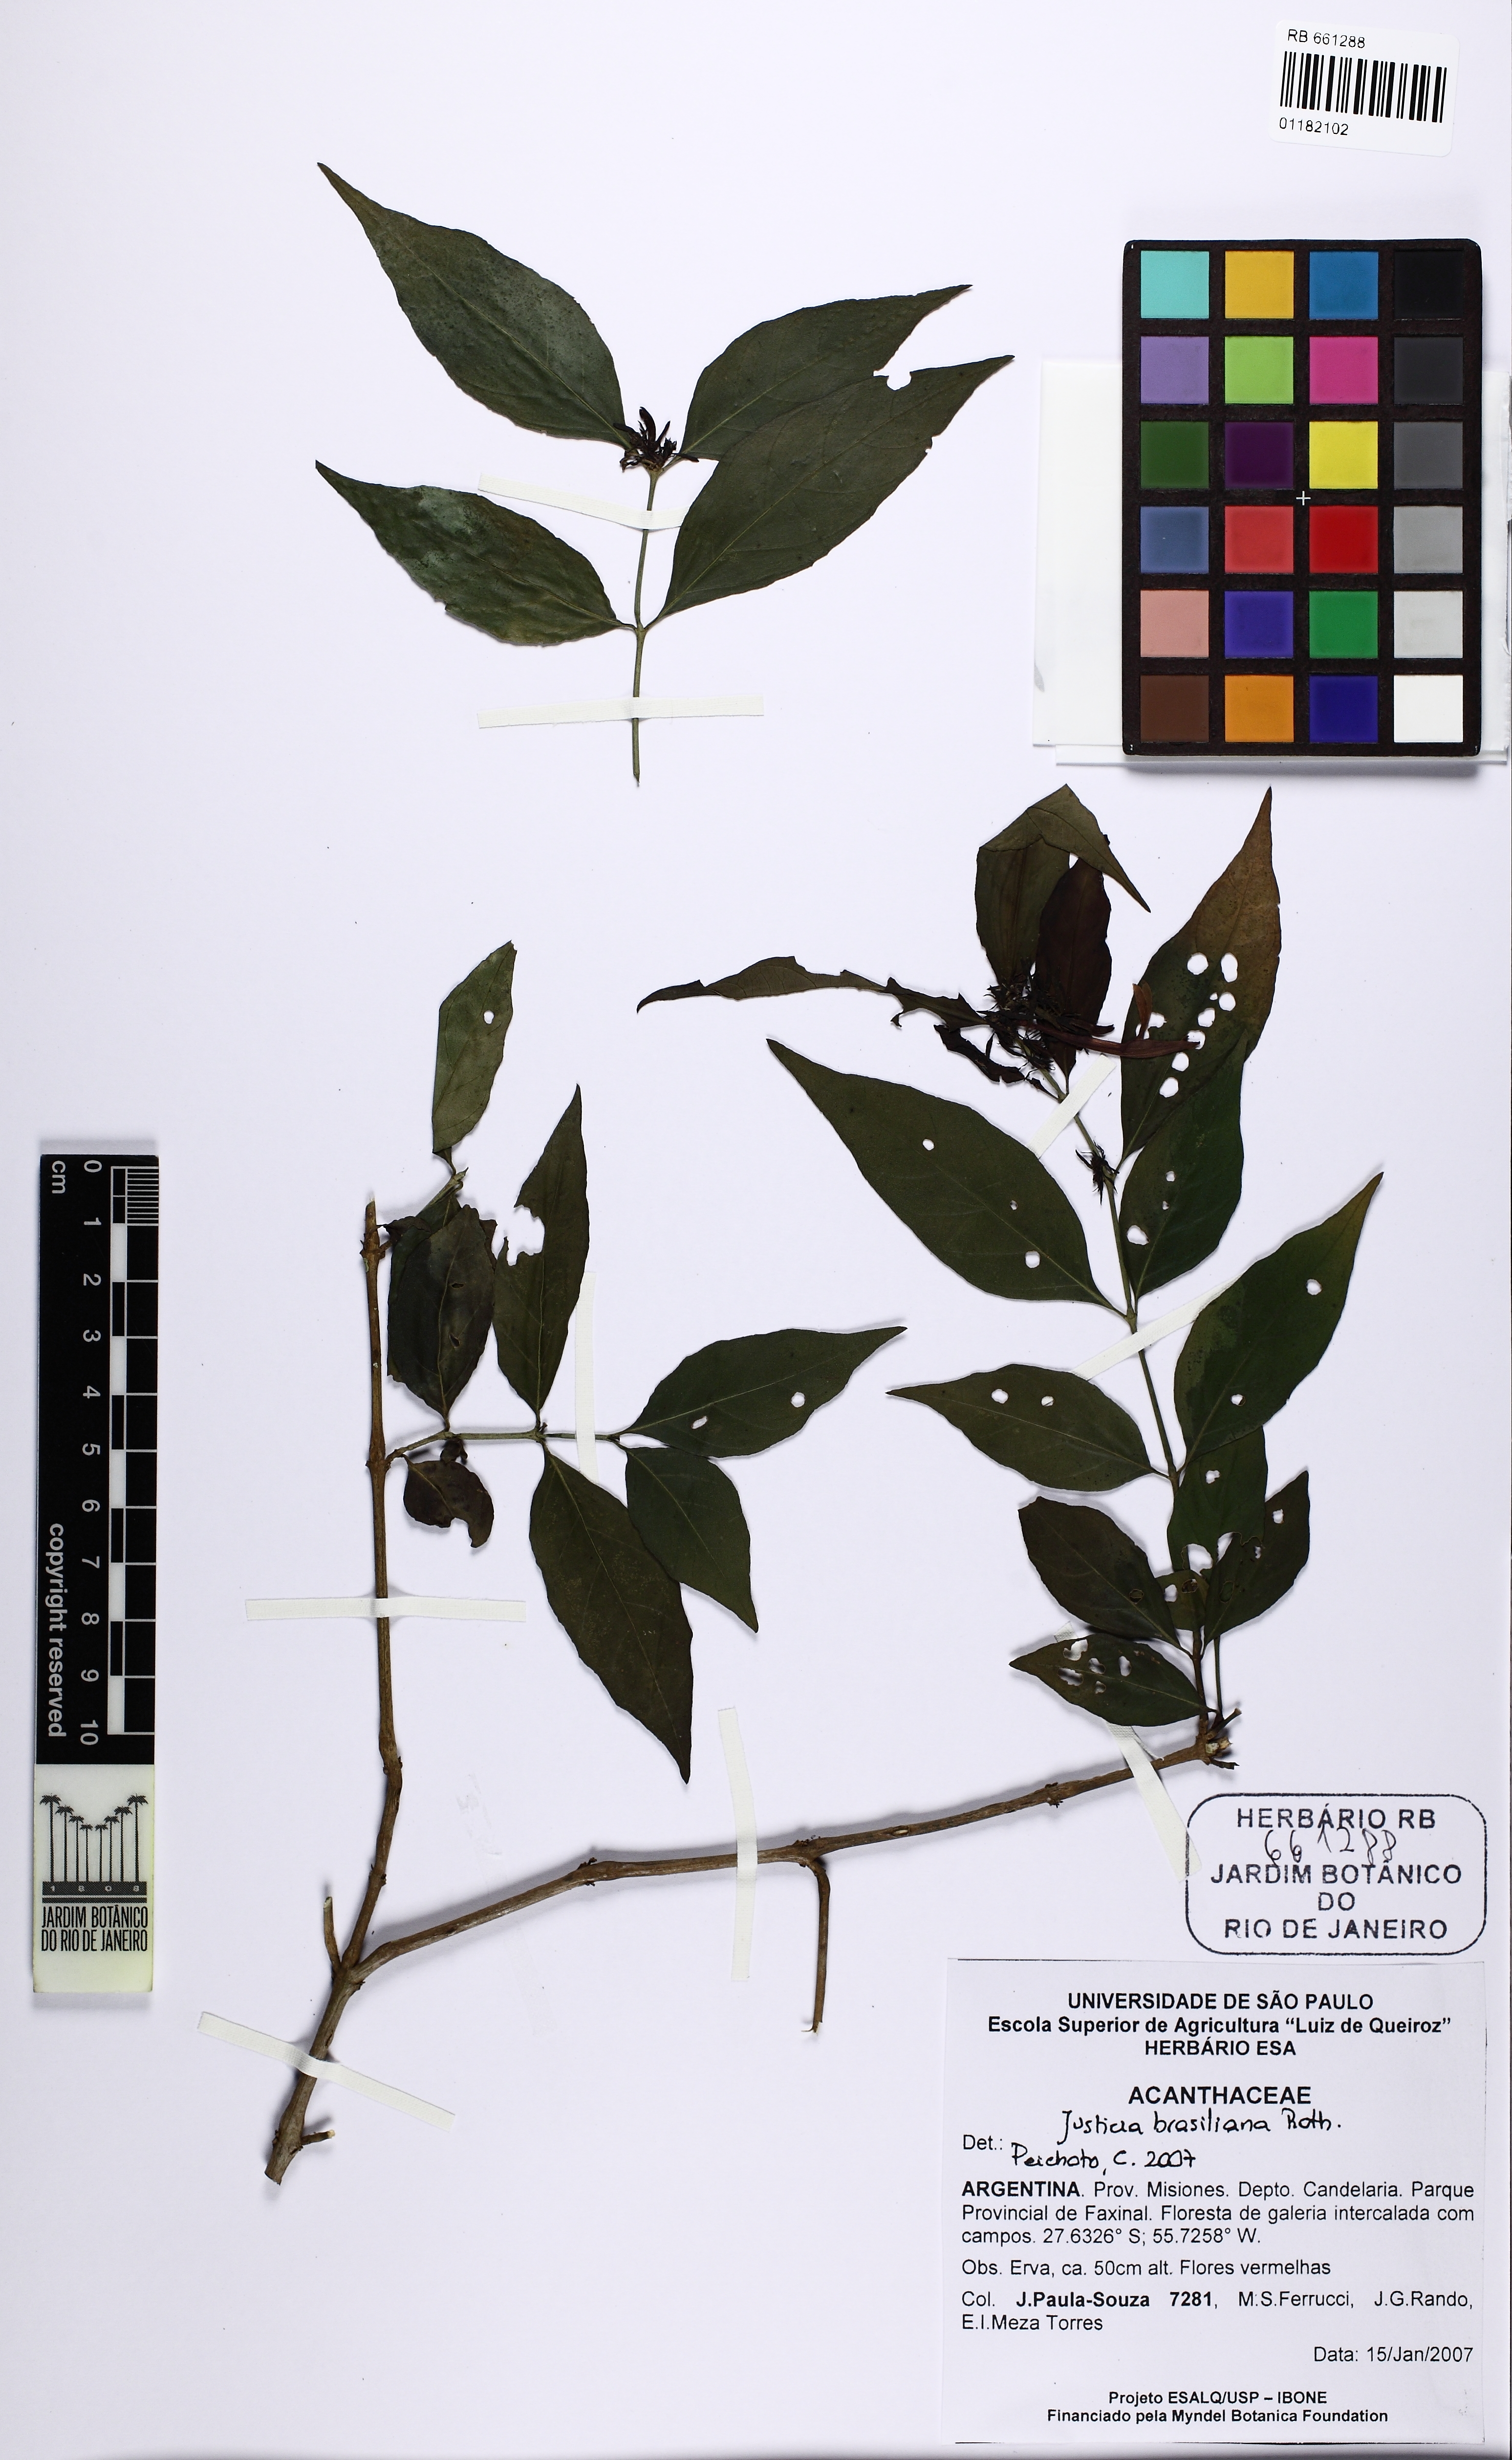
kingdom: Plantae
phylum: Tracheophyta
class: Magnoliopsida
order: Lamiales
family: Acanthaceae
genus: Justicia
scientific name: Justicia brasiliana
